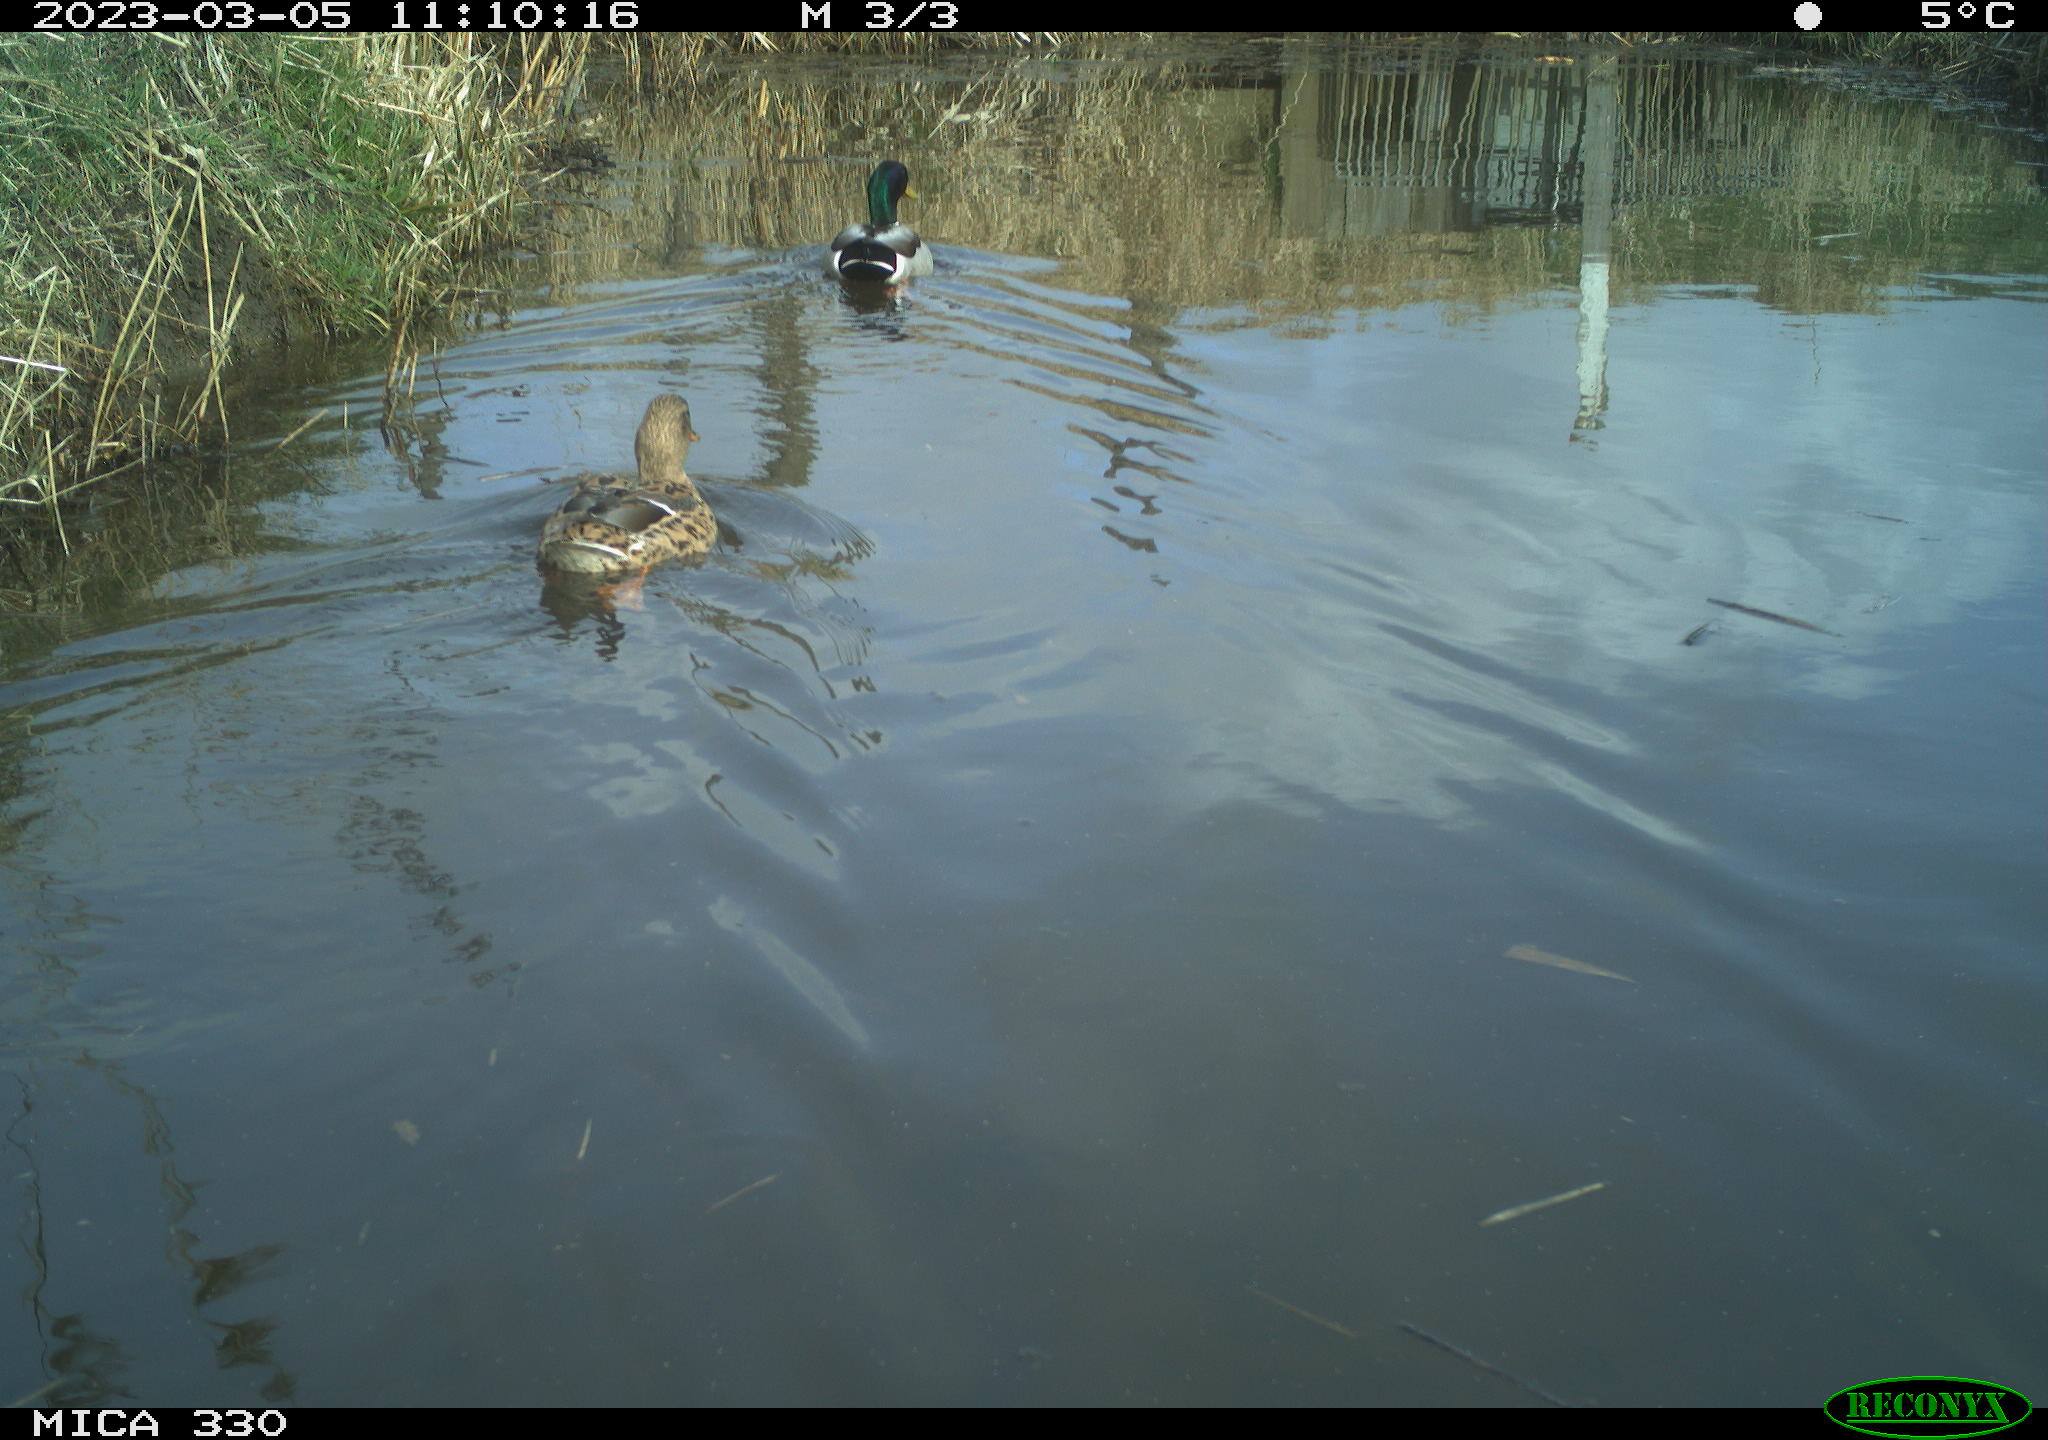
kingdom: Animalia
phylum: Chordata
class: Aves
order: Anseriformes
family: Anatidae
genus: Anas
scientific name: Anas
